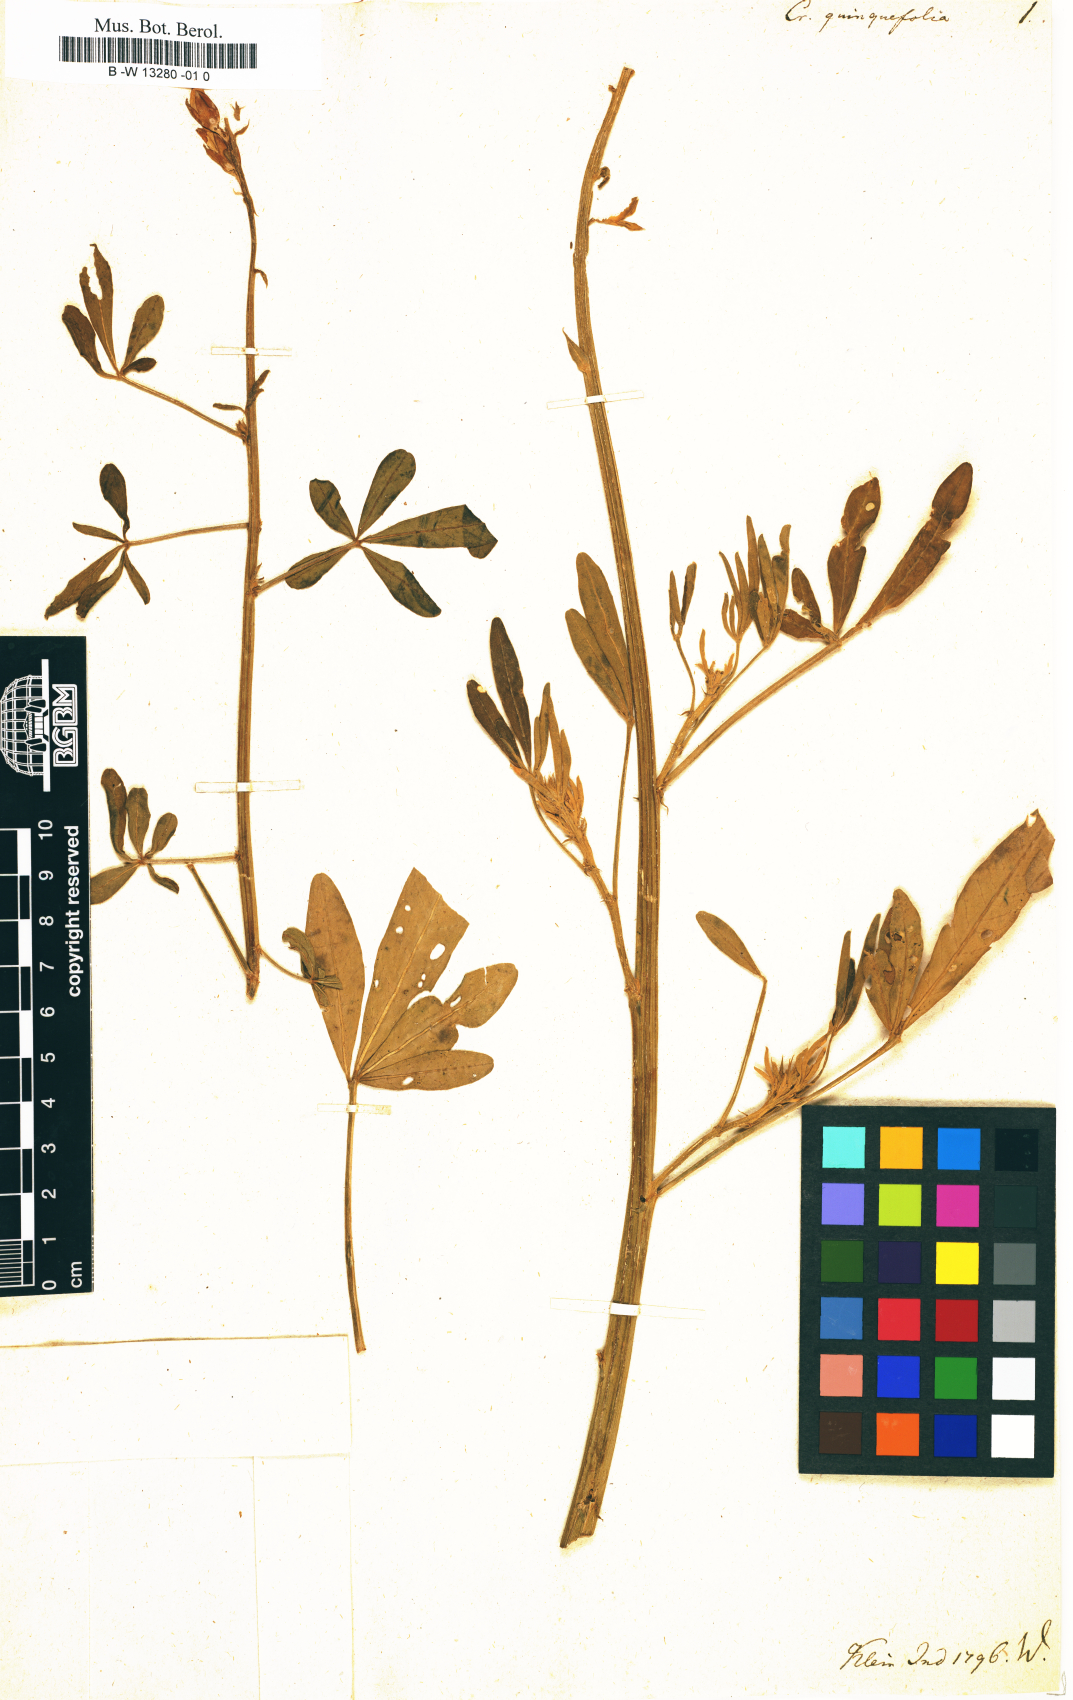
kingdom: Plantae
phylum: Tracheophyta
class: Magnoliopsida
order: Fabales
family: Fabaceae
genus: Crotalaria
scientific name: Crotalaria quinquefolia
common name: Five-leaf crotalaria
